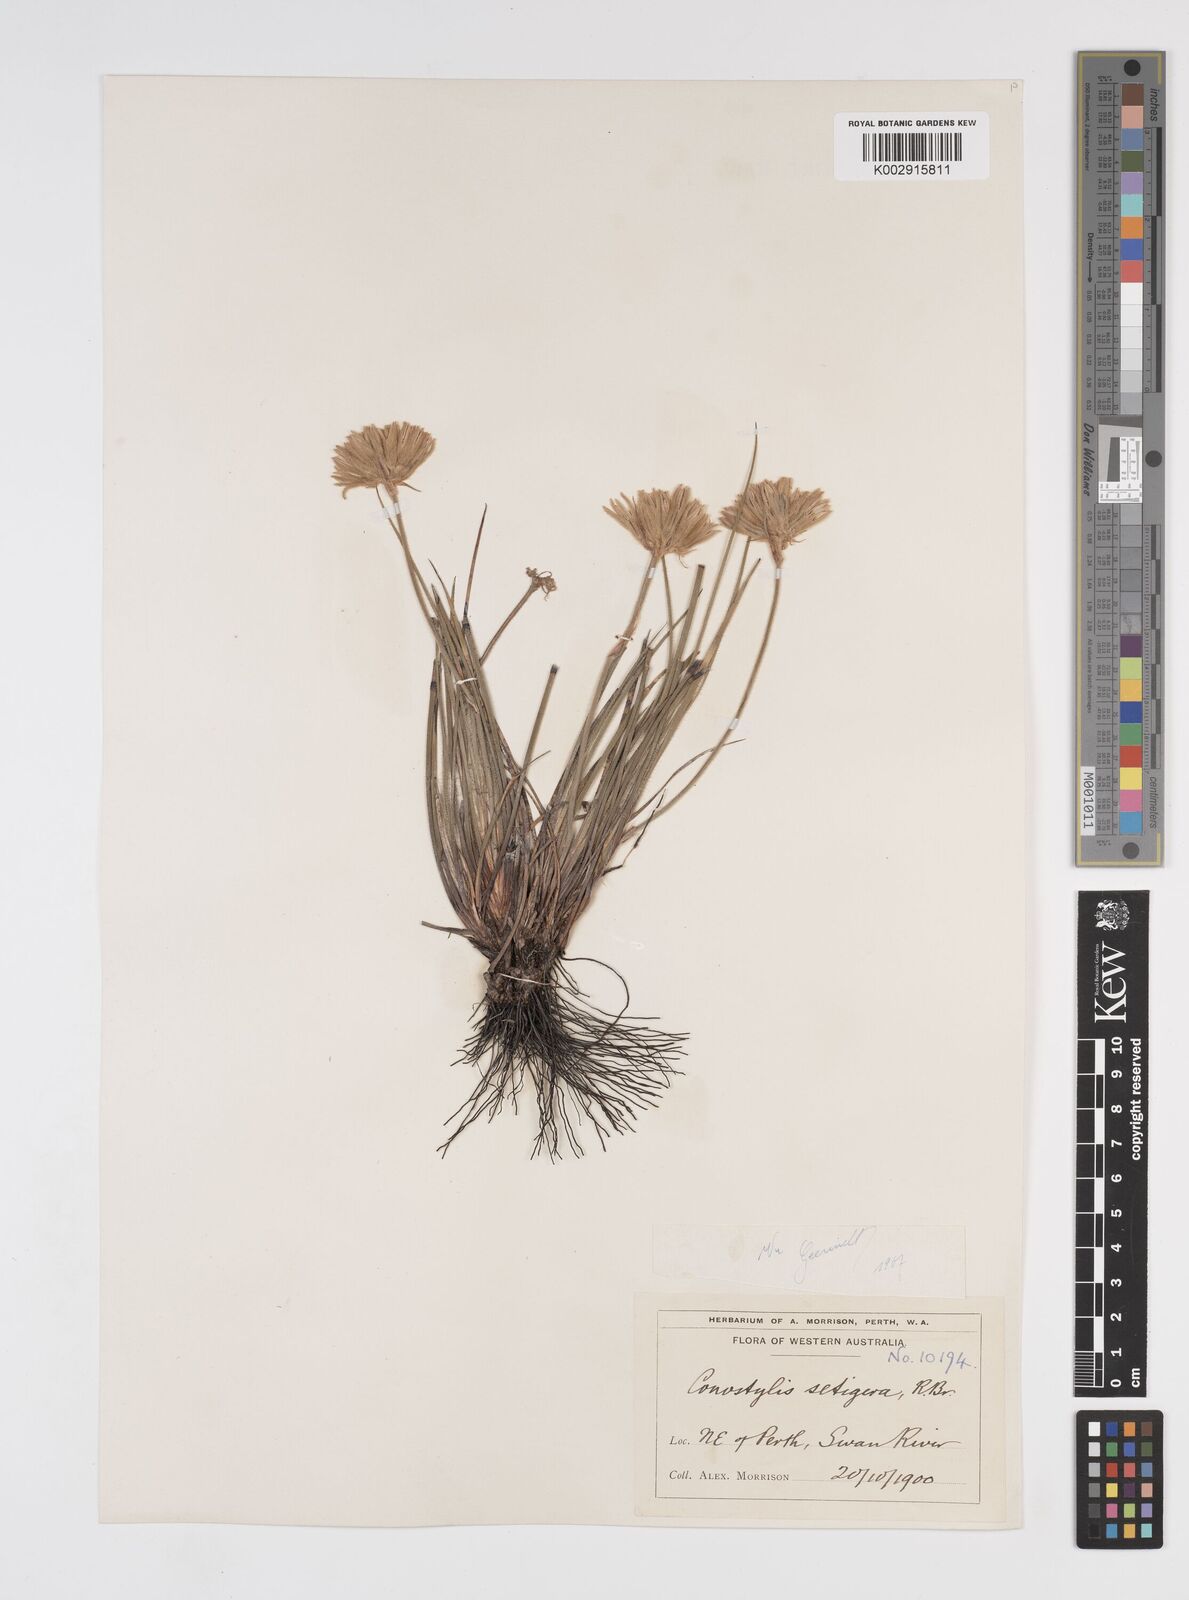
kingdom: Plantae
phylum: Tracheophyta
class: Liliopsida
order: Commelinales
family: Haemodoraceae
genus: Conostylis
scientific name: Conostylis setigera
